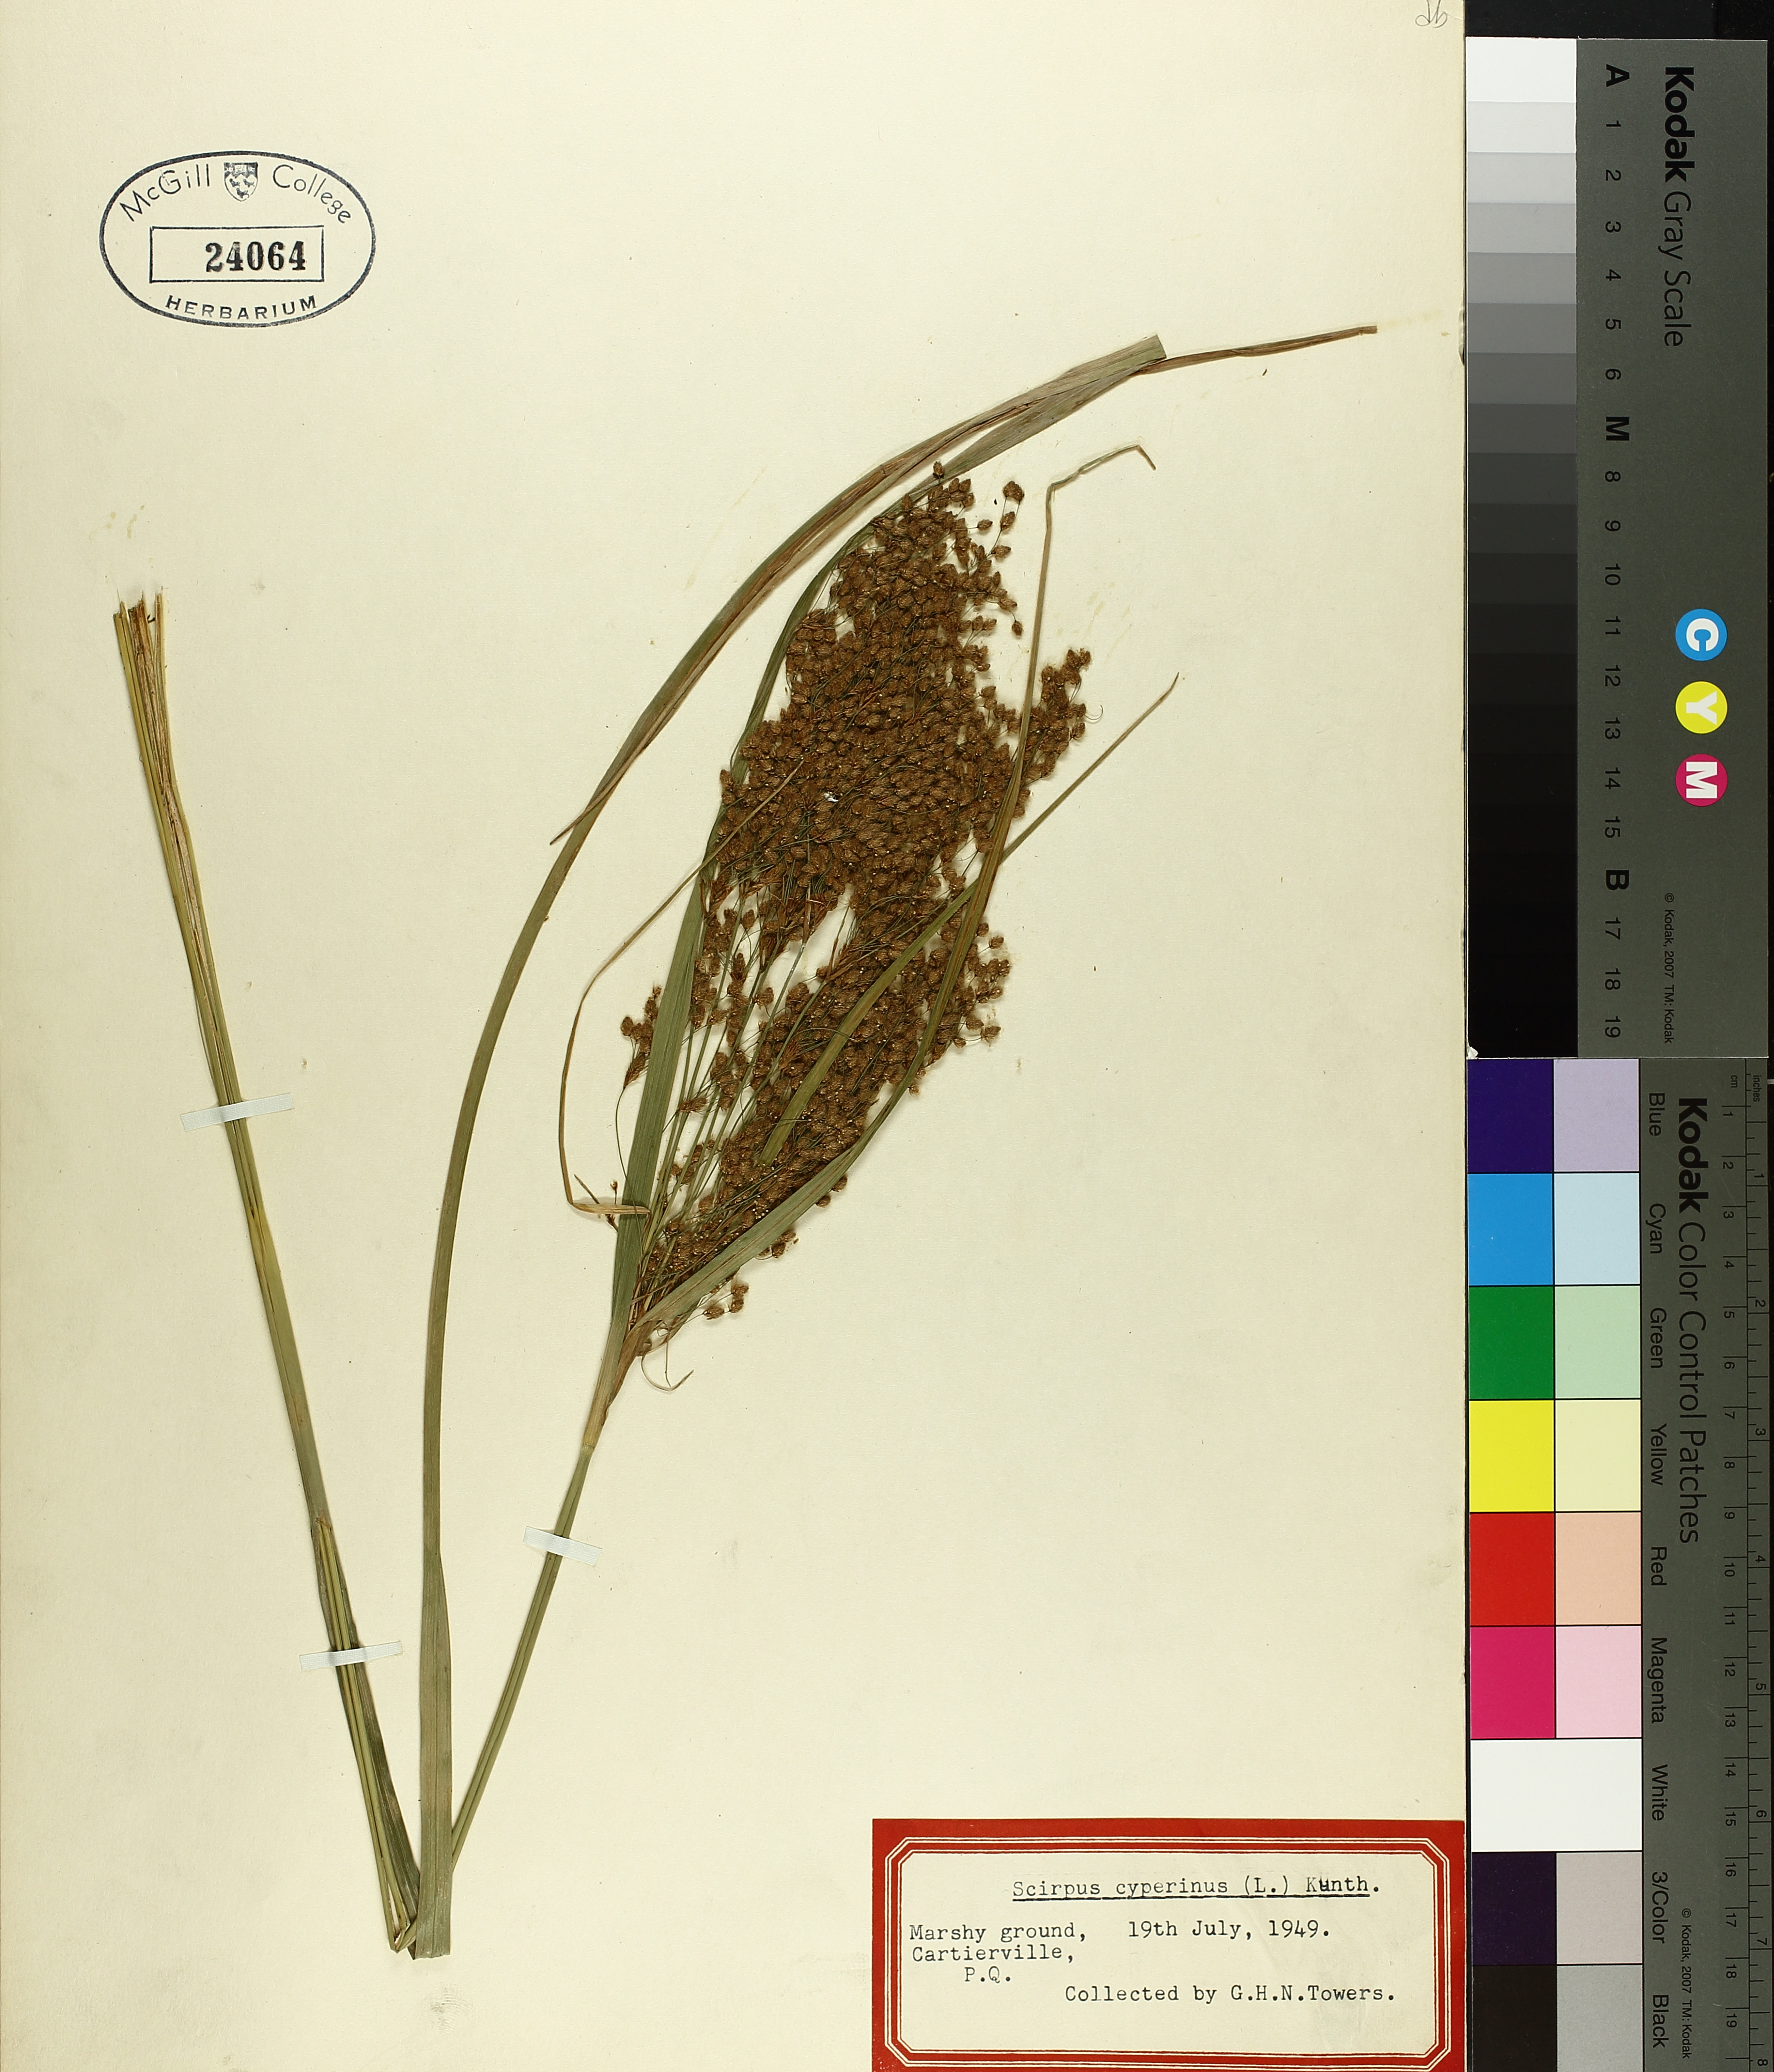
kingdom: Plantae
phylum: Tracheophyta
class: Liliopsida
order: Poales
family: Cyperaceae
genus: Scirpus
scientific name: Scirpus cyperinus
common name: Black-sheathed bulrush
